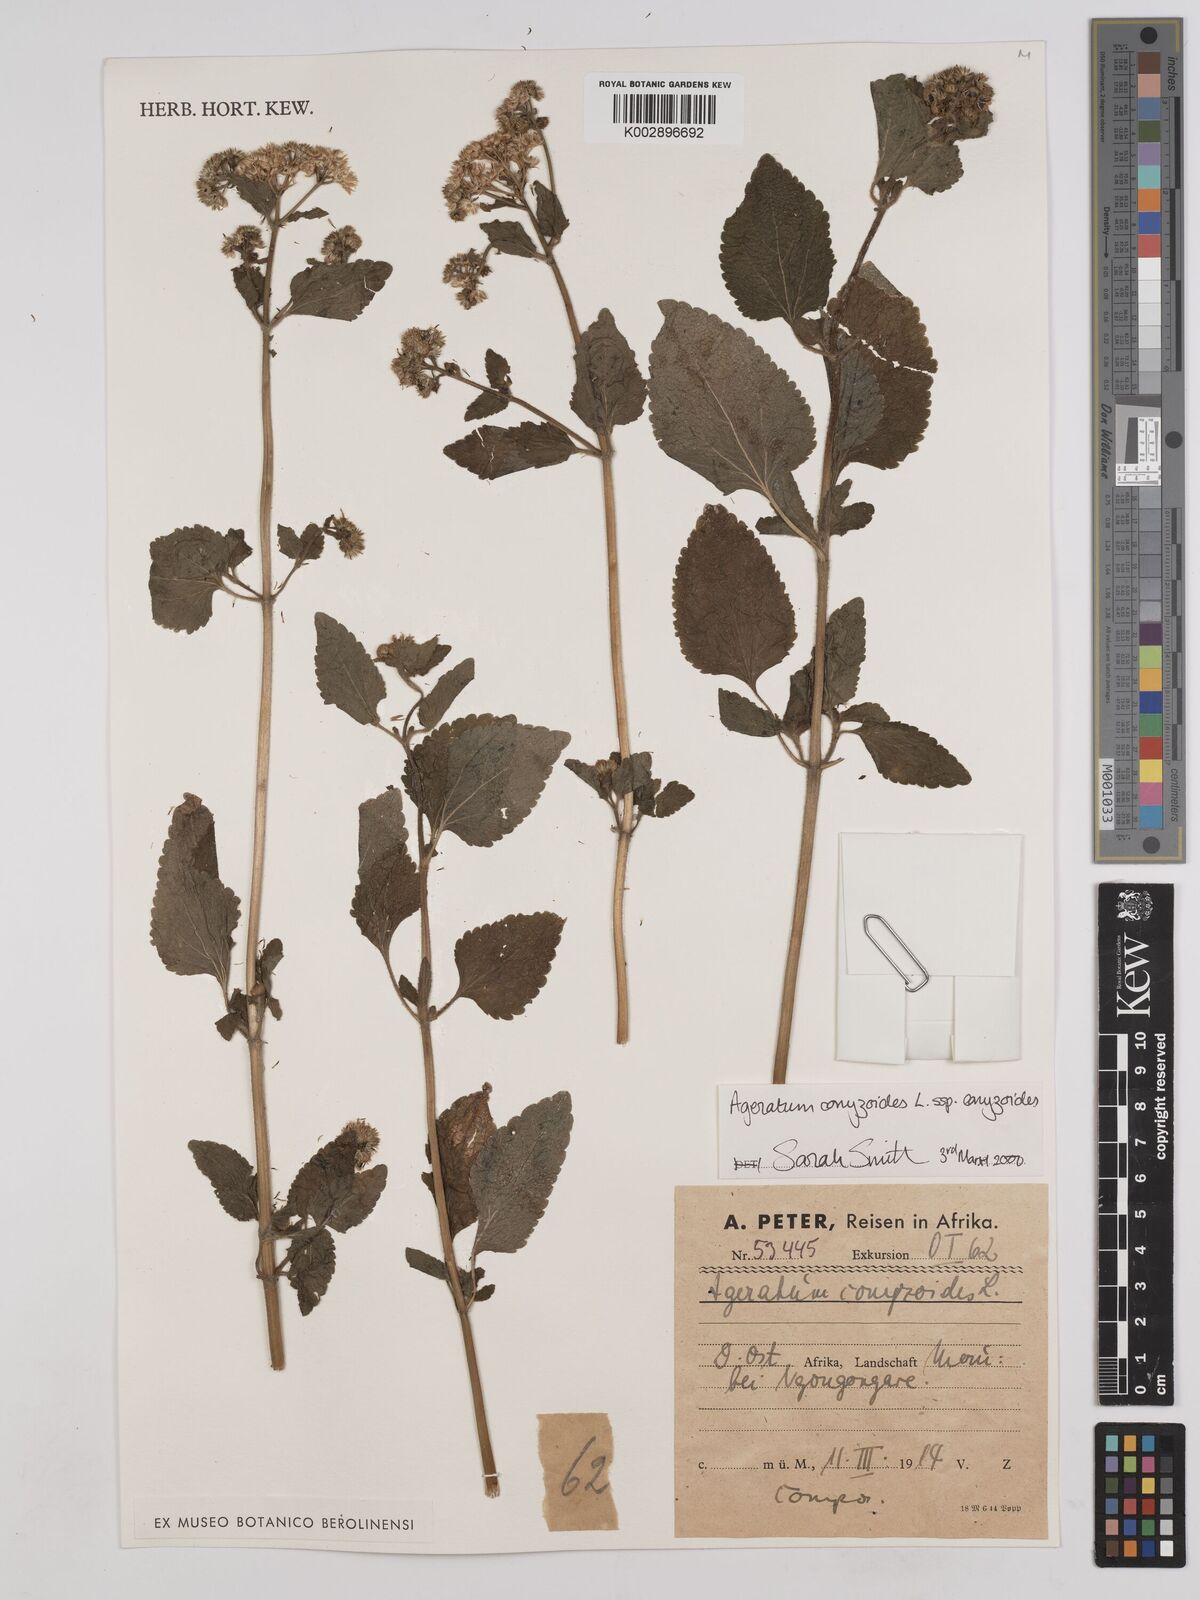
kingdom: Plantae
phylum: Tracheophyta
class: Magnoliopsida
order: Asterales
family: Asteraceae
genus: Ageratum
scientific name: Ageratum conyzoides
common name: Tropical whiteweed
